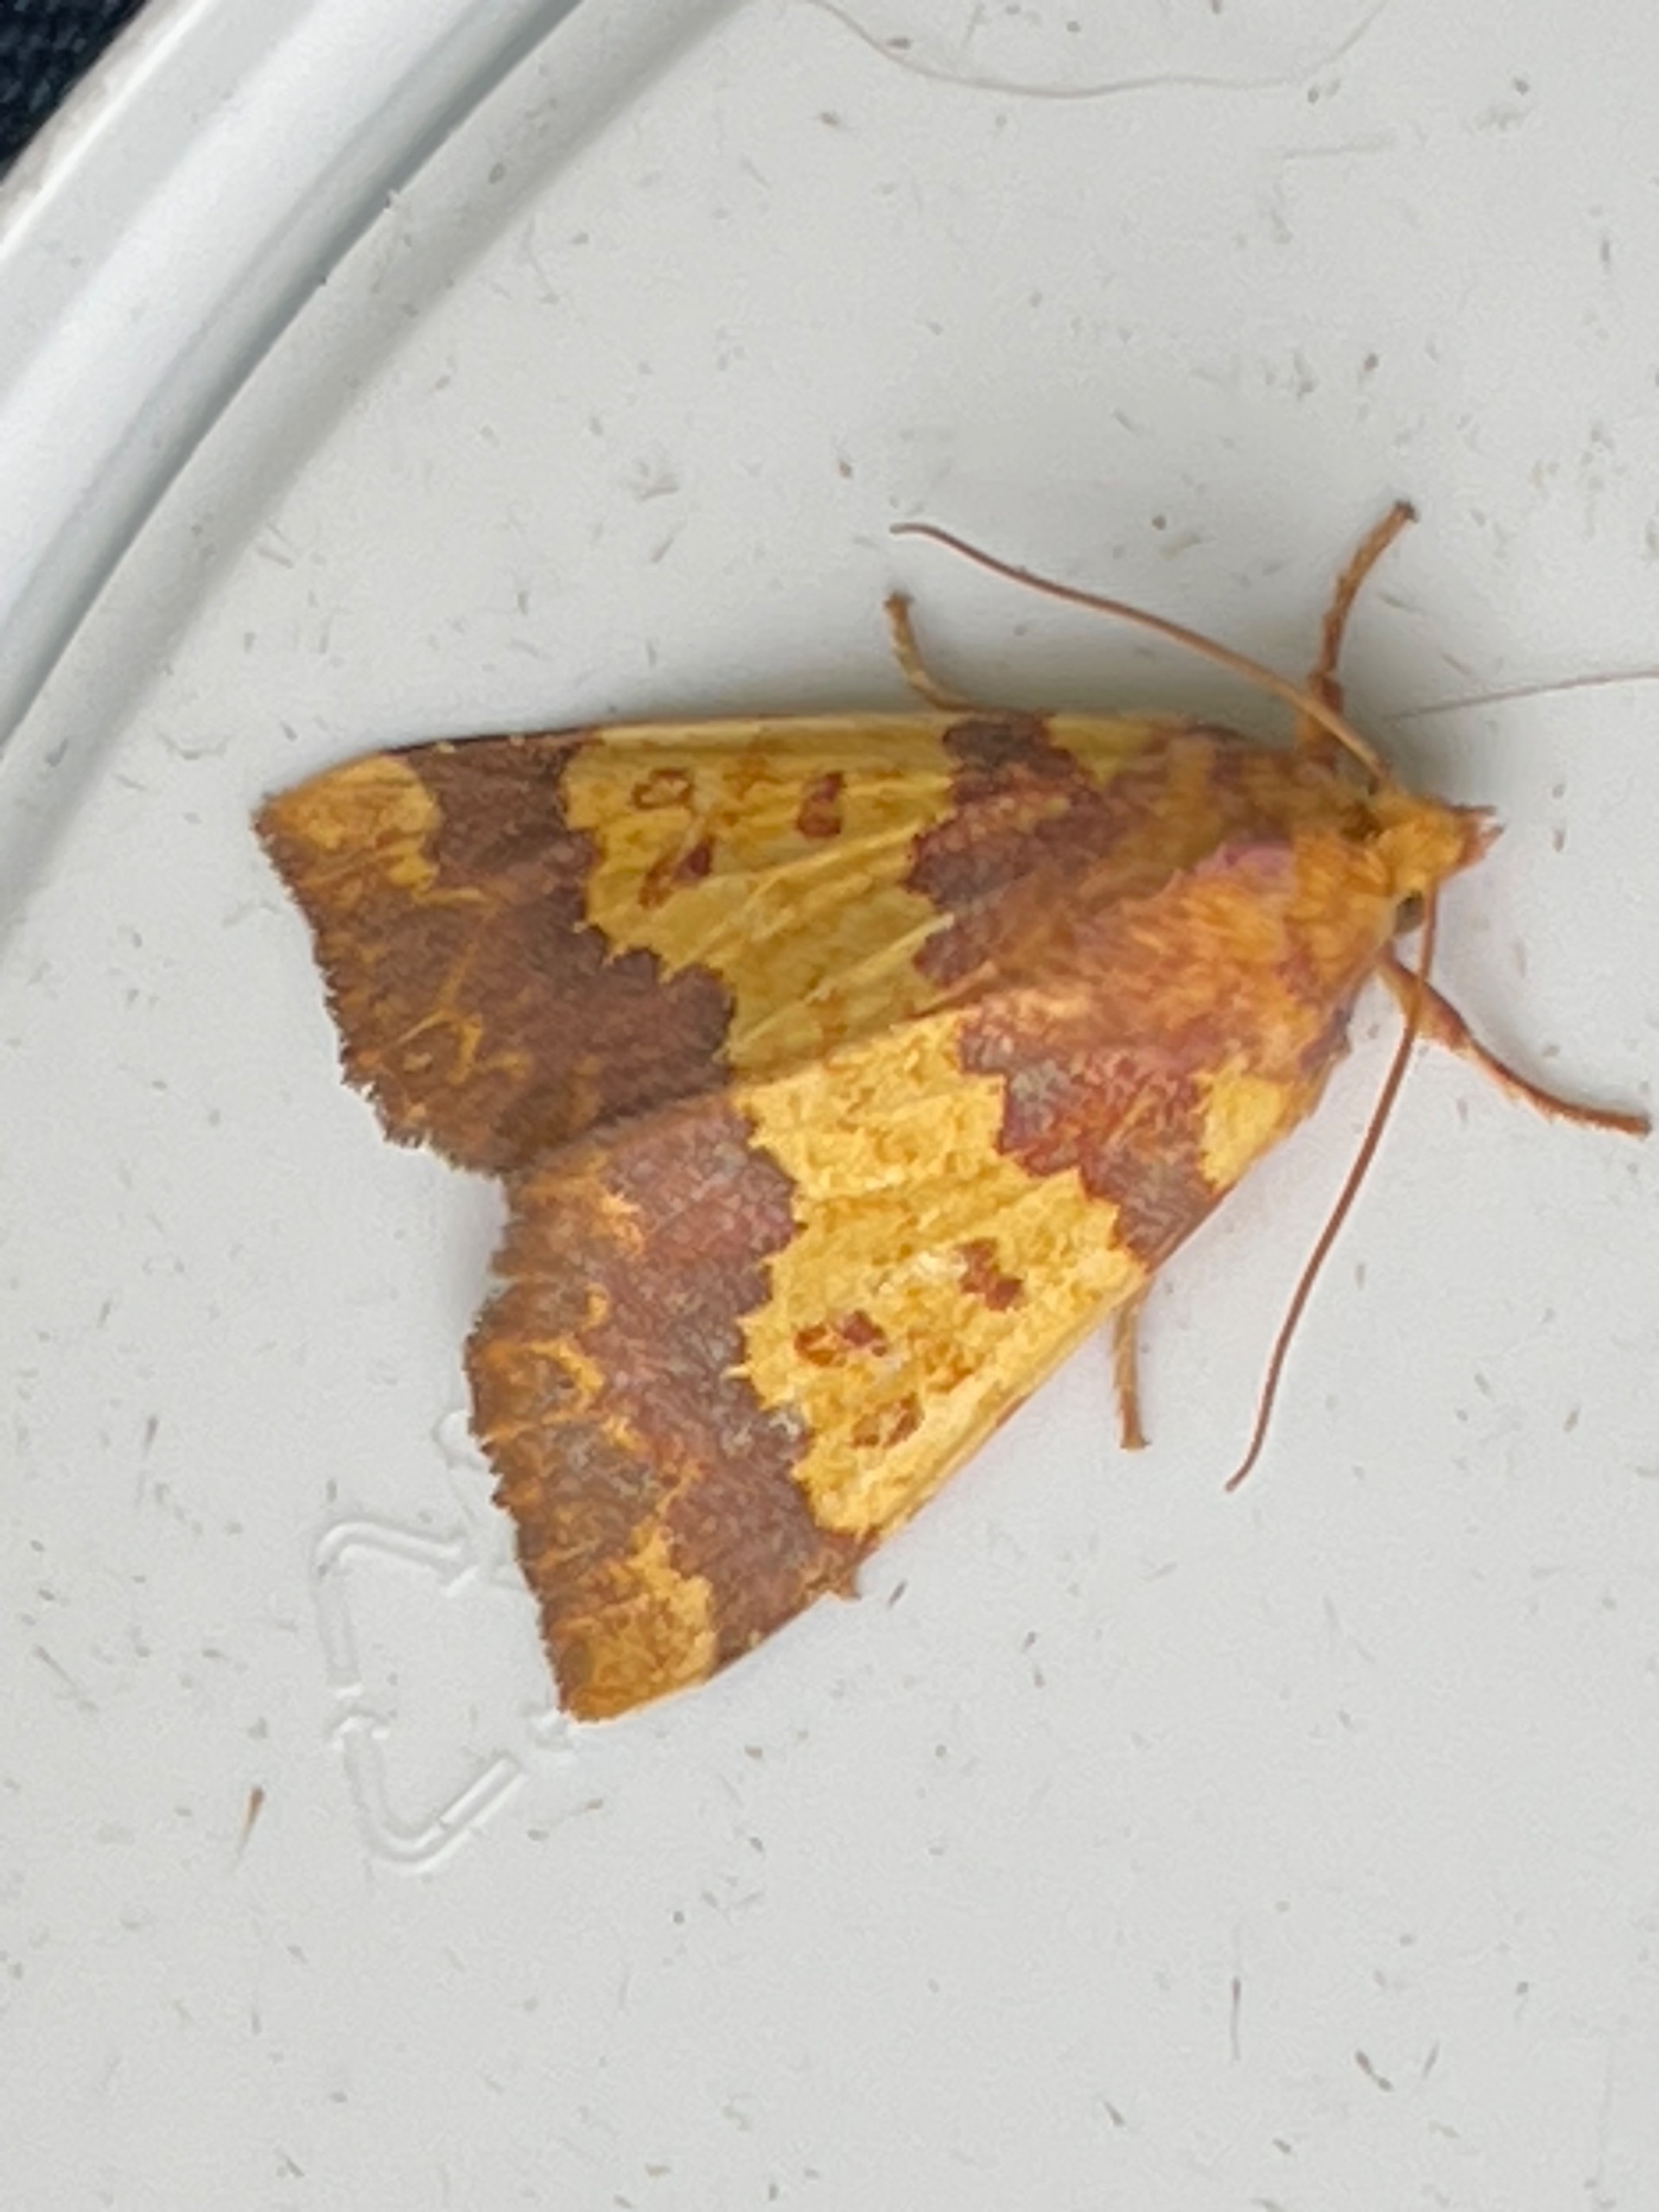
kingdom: Animalia
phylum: Arthropoda
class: Insecta
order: Lepidoptera
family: Noctuidae
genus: Tiliacea
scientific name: Tiliacea aurago
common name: Guldugle
